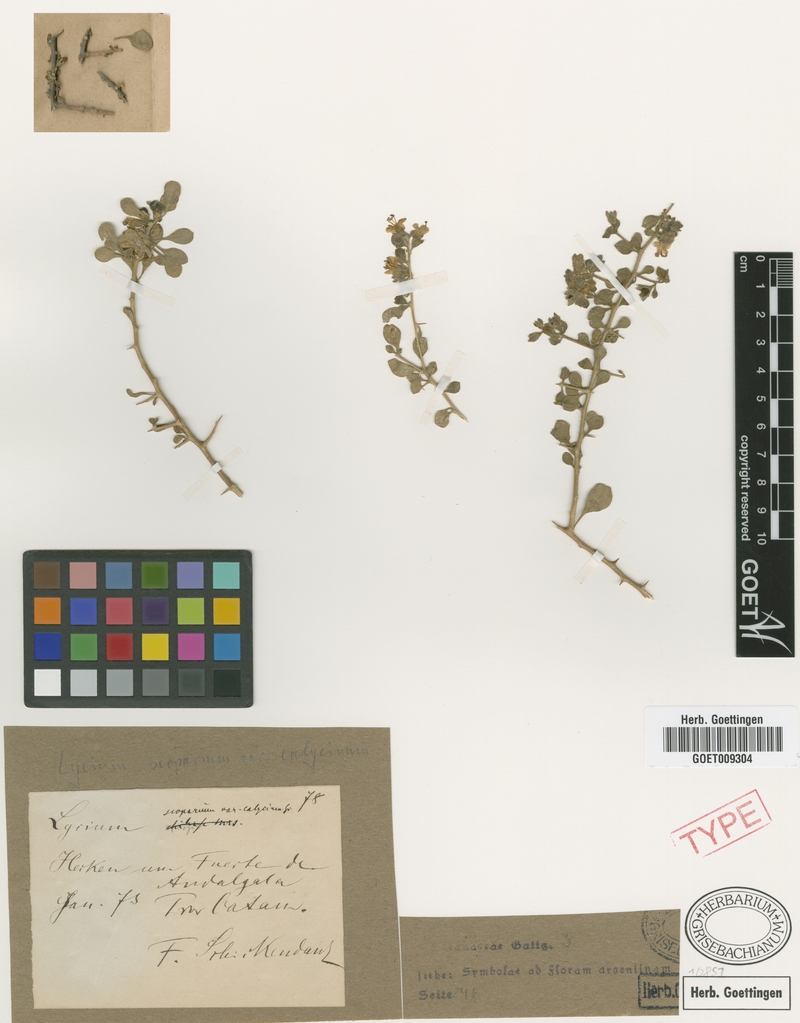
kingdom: Plantae
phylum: Tracheophyta
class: Magnoliopsida
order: Solanales
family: Solanaceae
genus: Lycium
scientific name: Lycium tenuispinosum
